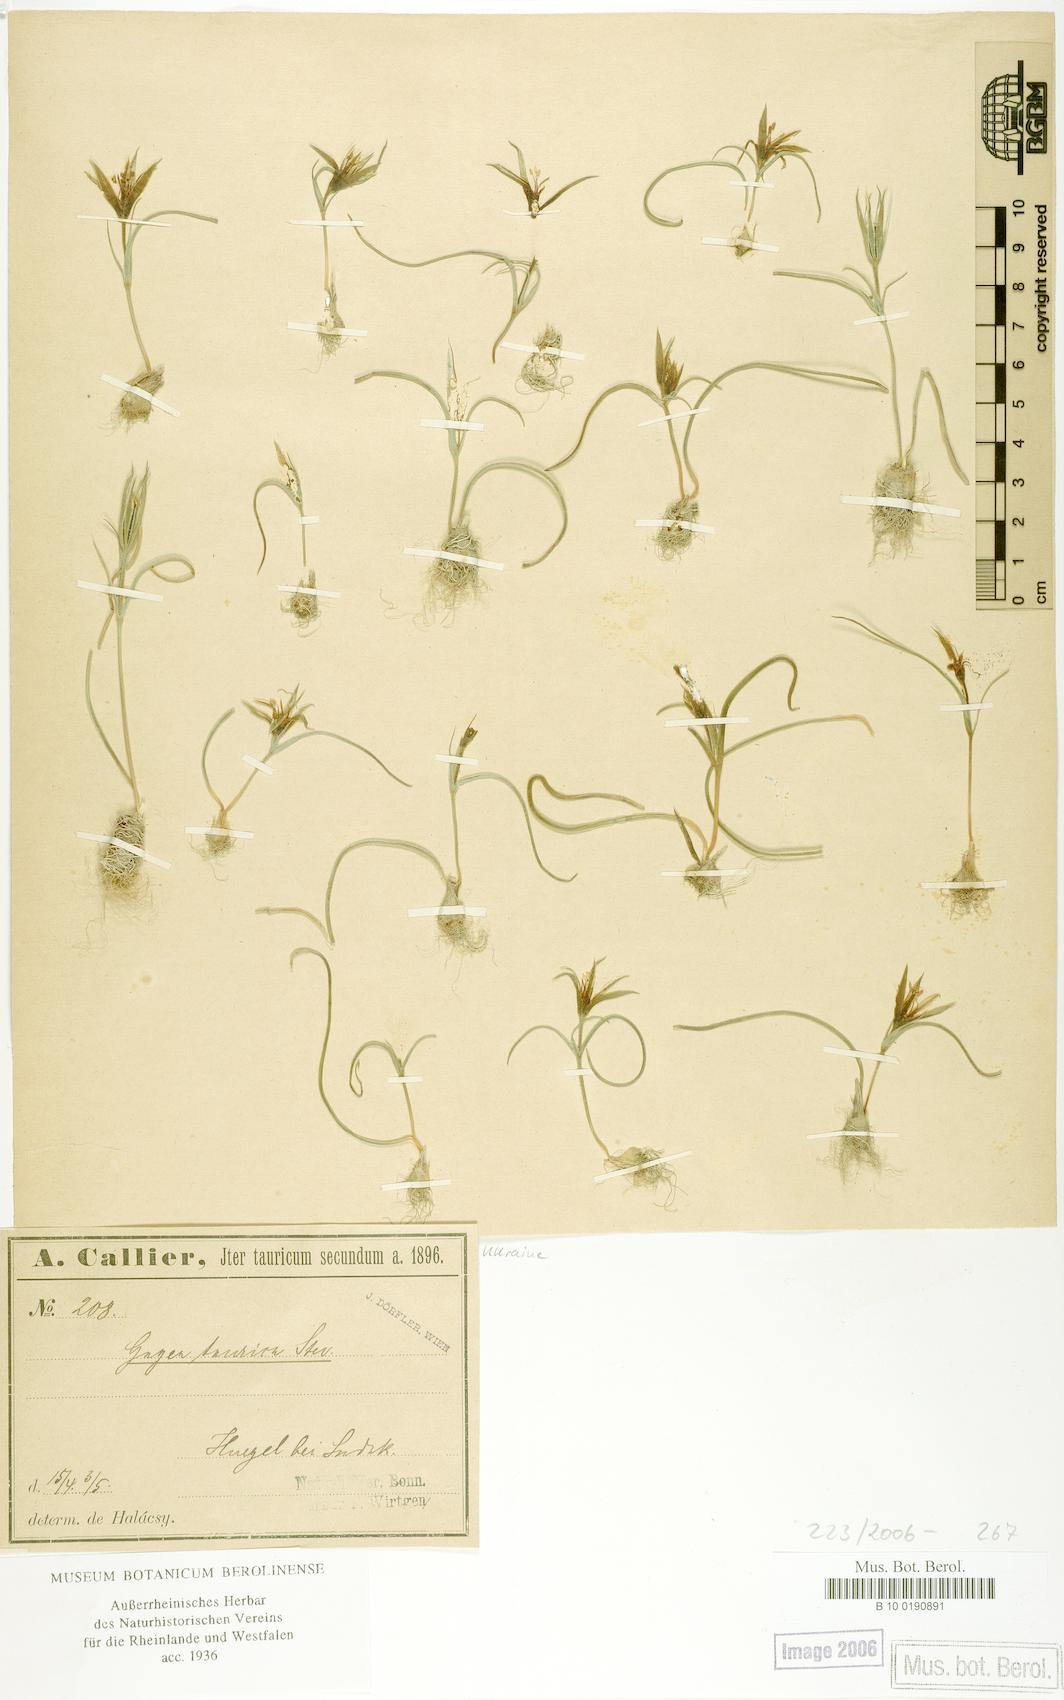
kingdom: Plantae
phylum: Tracheophyta
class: Liliopsida
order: Liliales
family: Liliaceae
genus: Gagea
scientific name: Gagea taurica
